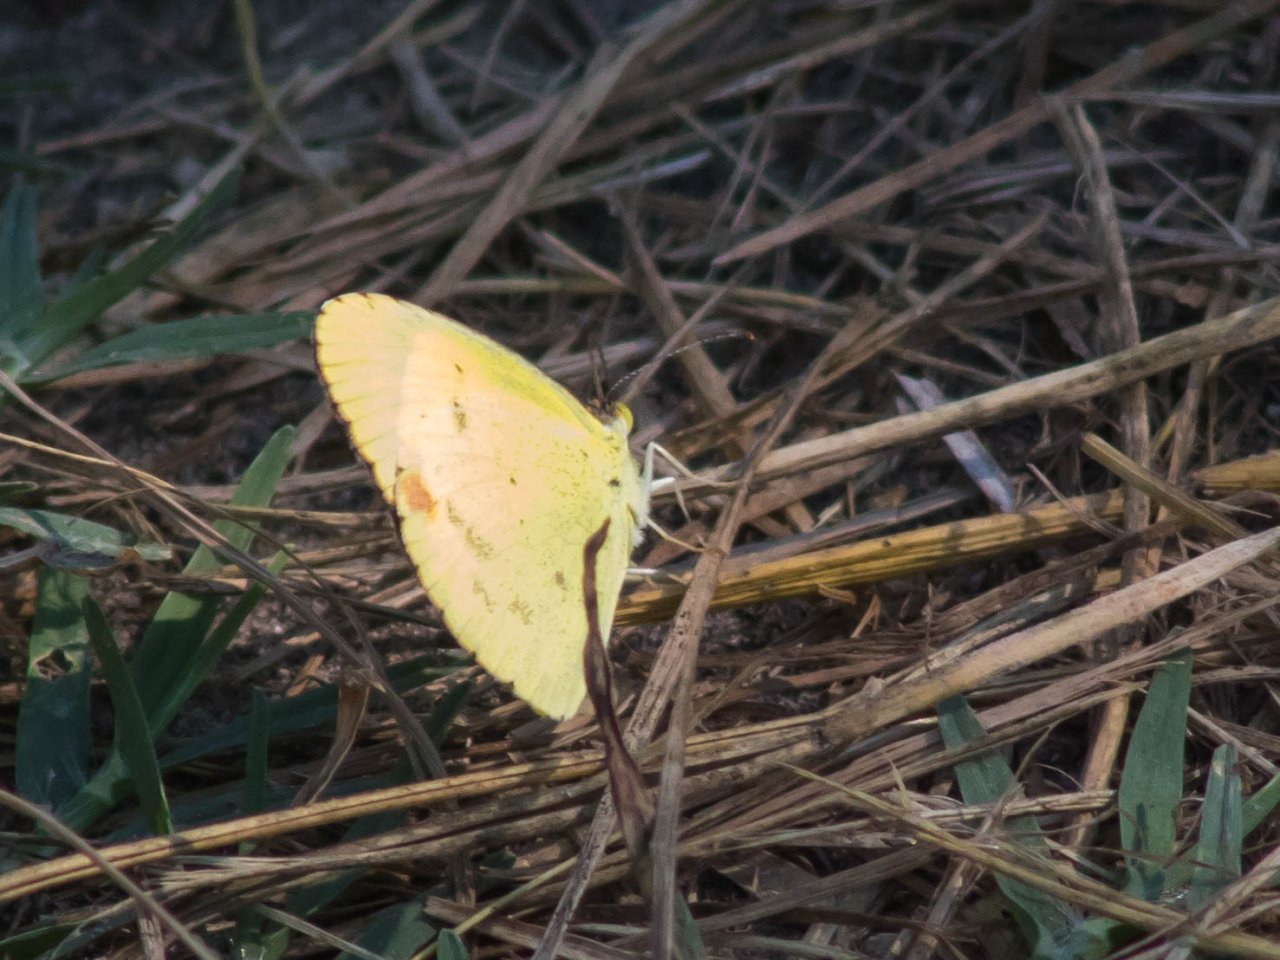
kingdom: Animalia
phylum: Arthropoda
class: Insecta
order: Lepidoptera
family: Pieridae
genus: Pyrisitia
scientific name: Pyrisitia lisa
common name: Little Yellow
